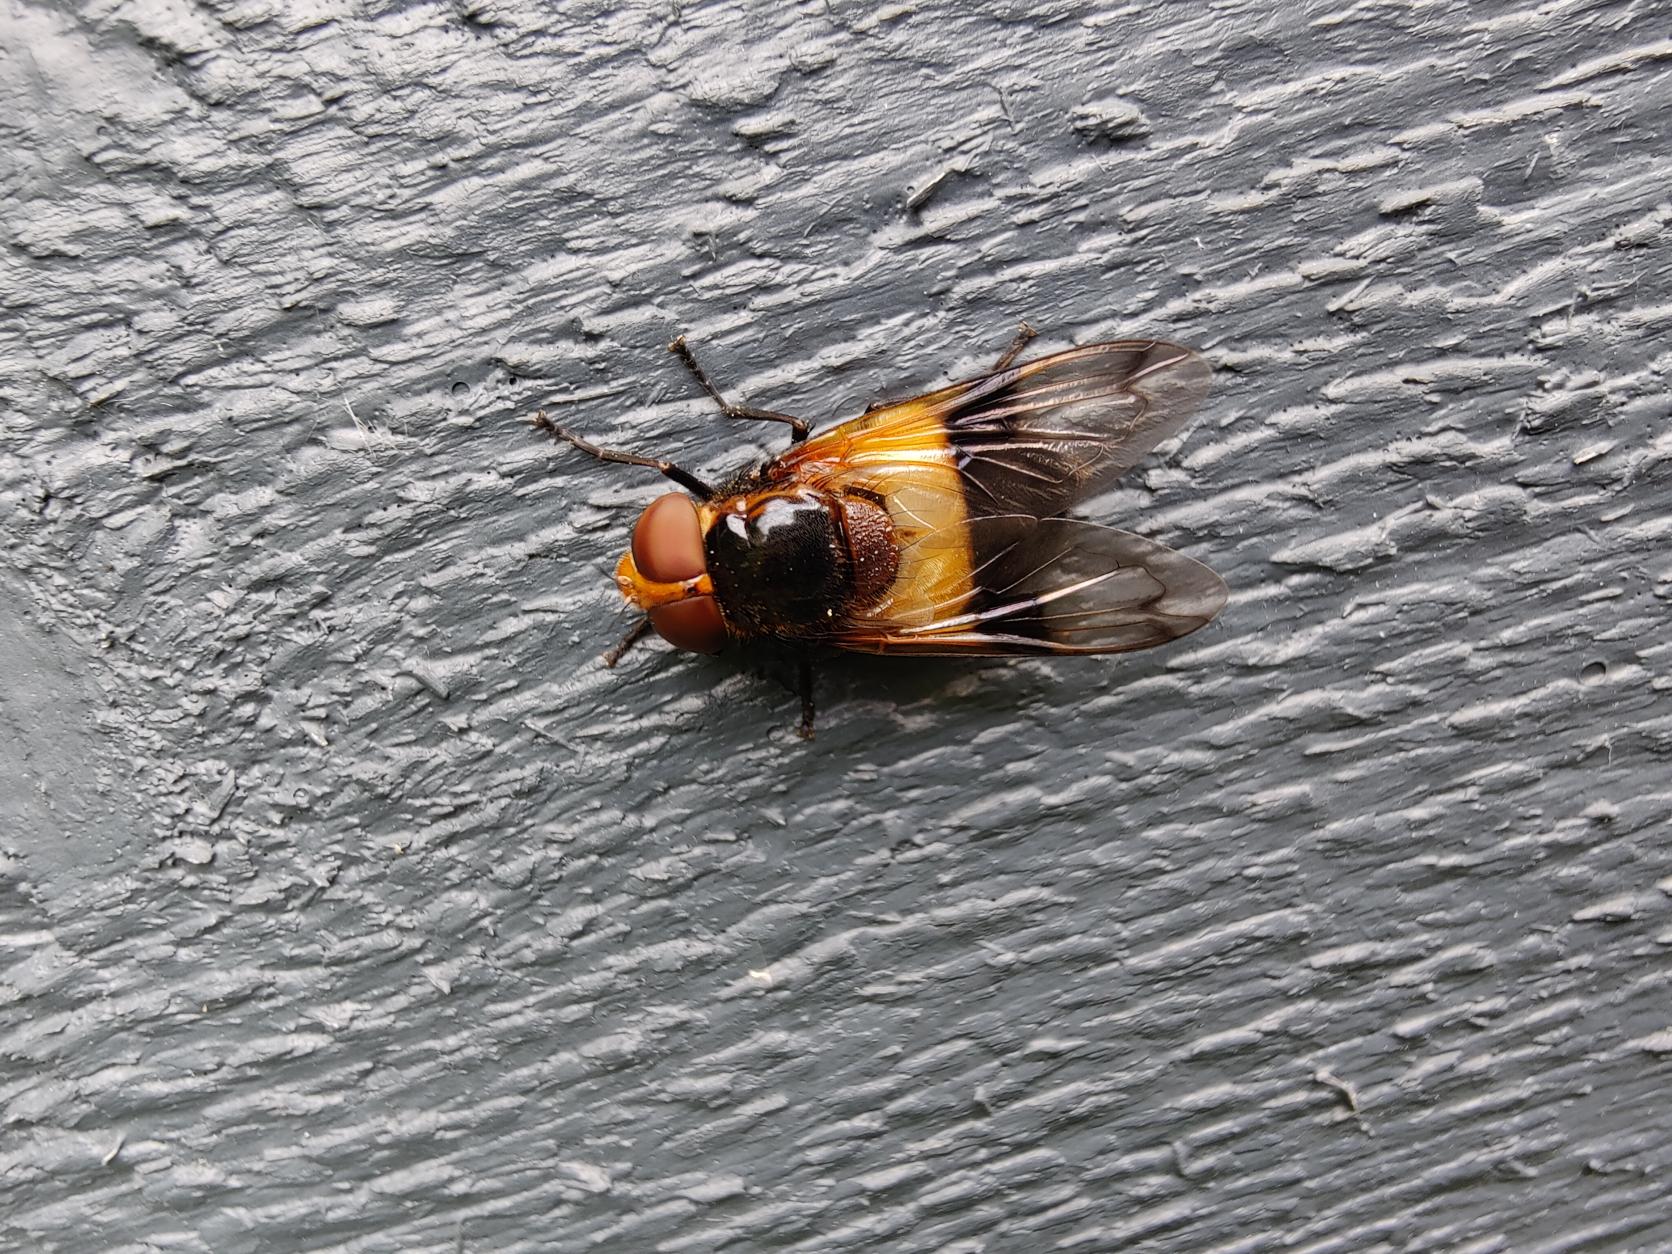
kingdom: Animalia
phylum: Arthropoda
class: Insecta
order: Diptera
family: Syrphidae
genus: Volucella
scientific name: Volucella pellucens
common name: Hvidbåndet humlesvirreflue
